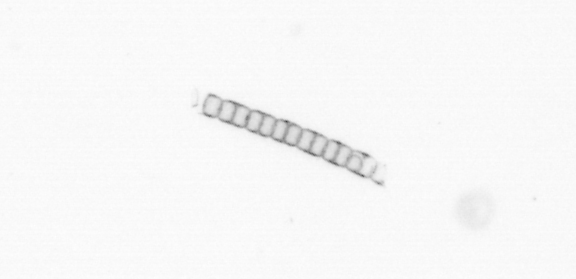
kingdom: Chromista
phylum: Myzozoa
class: Dinophyceae
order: Noctilucales
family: Noctilucaceae
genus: Noctiluca
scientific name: Noctiluca scintillans
